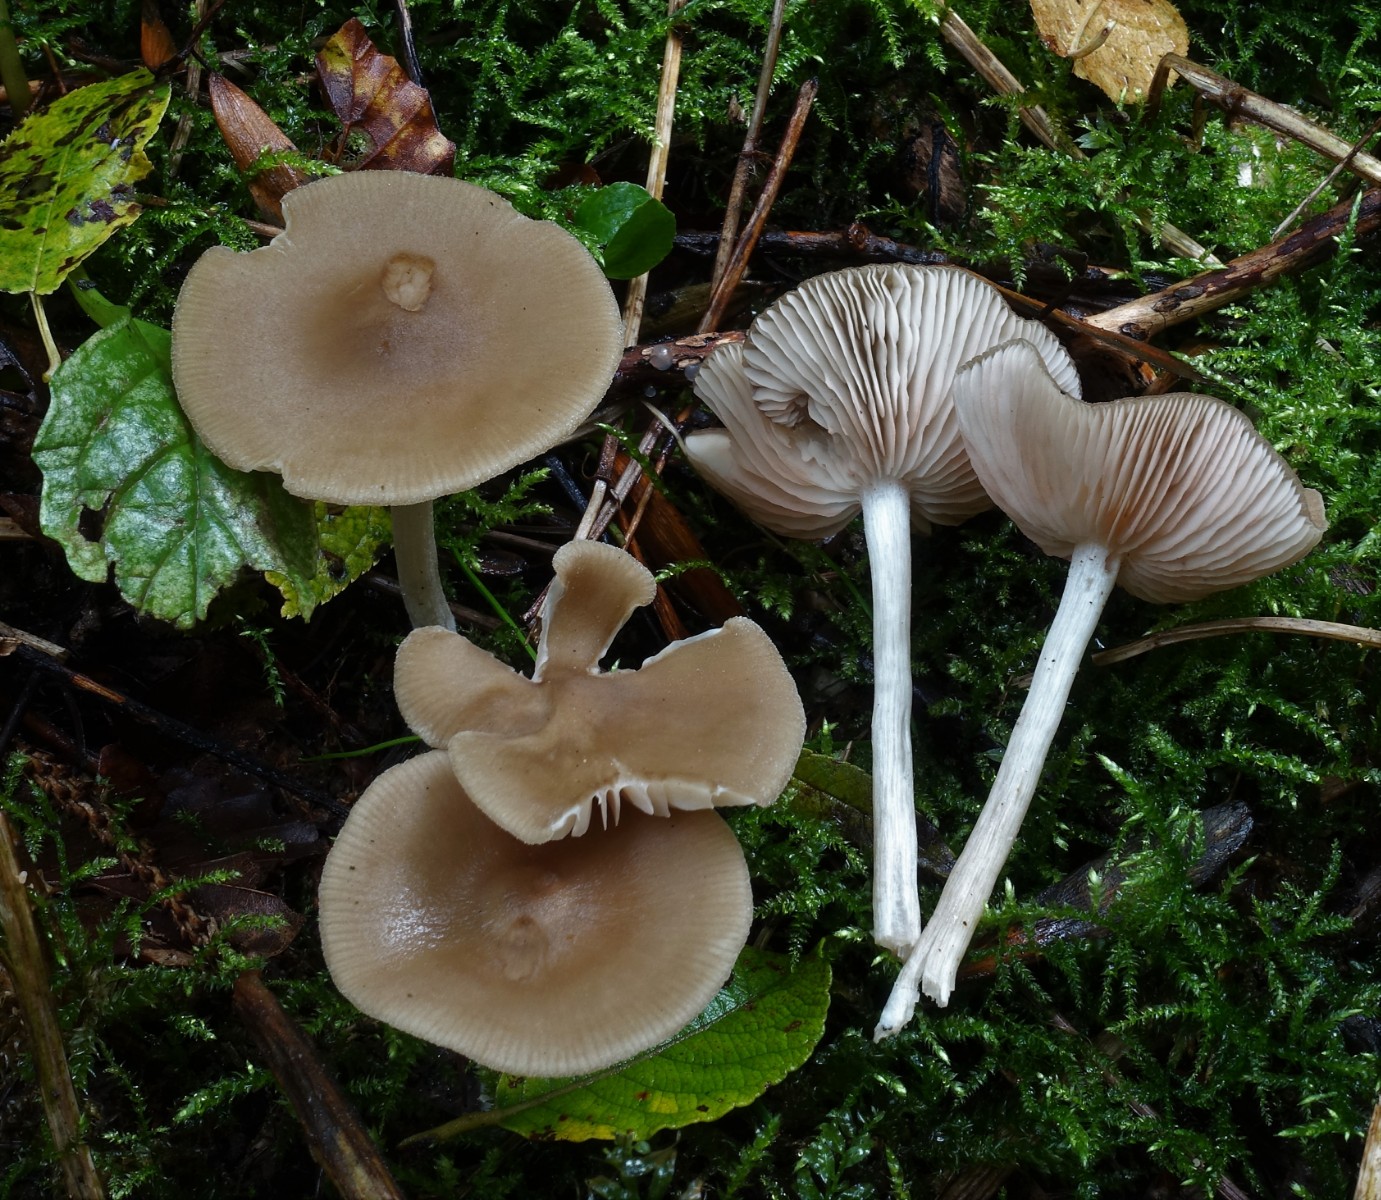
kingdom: Fungi
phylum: Basidiomycota
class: Agaricomycetes
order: Agaricales
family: Entolomataceae
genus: Entoloma
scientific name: Entoloma rhodopolium
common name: skov-rødblad
